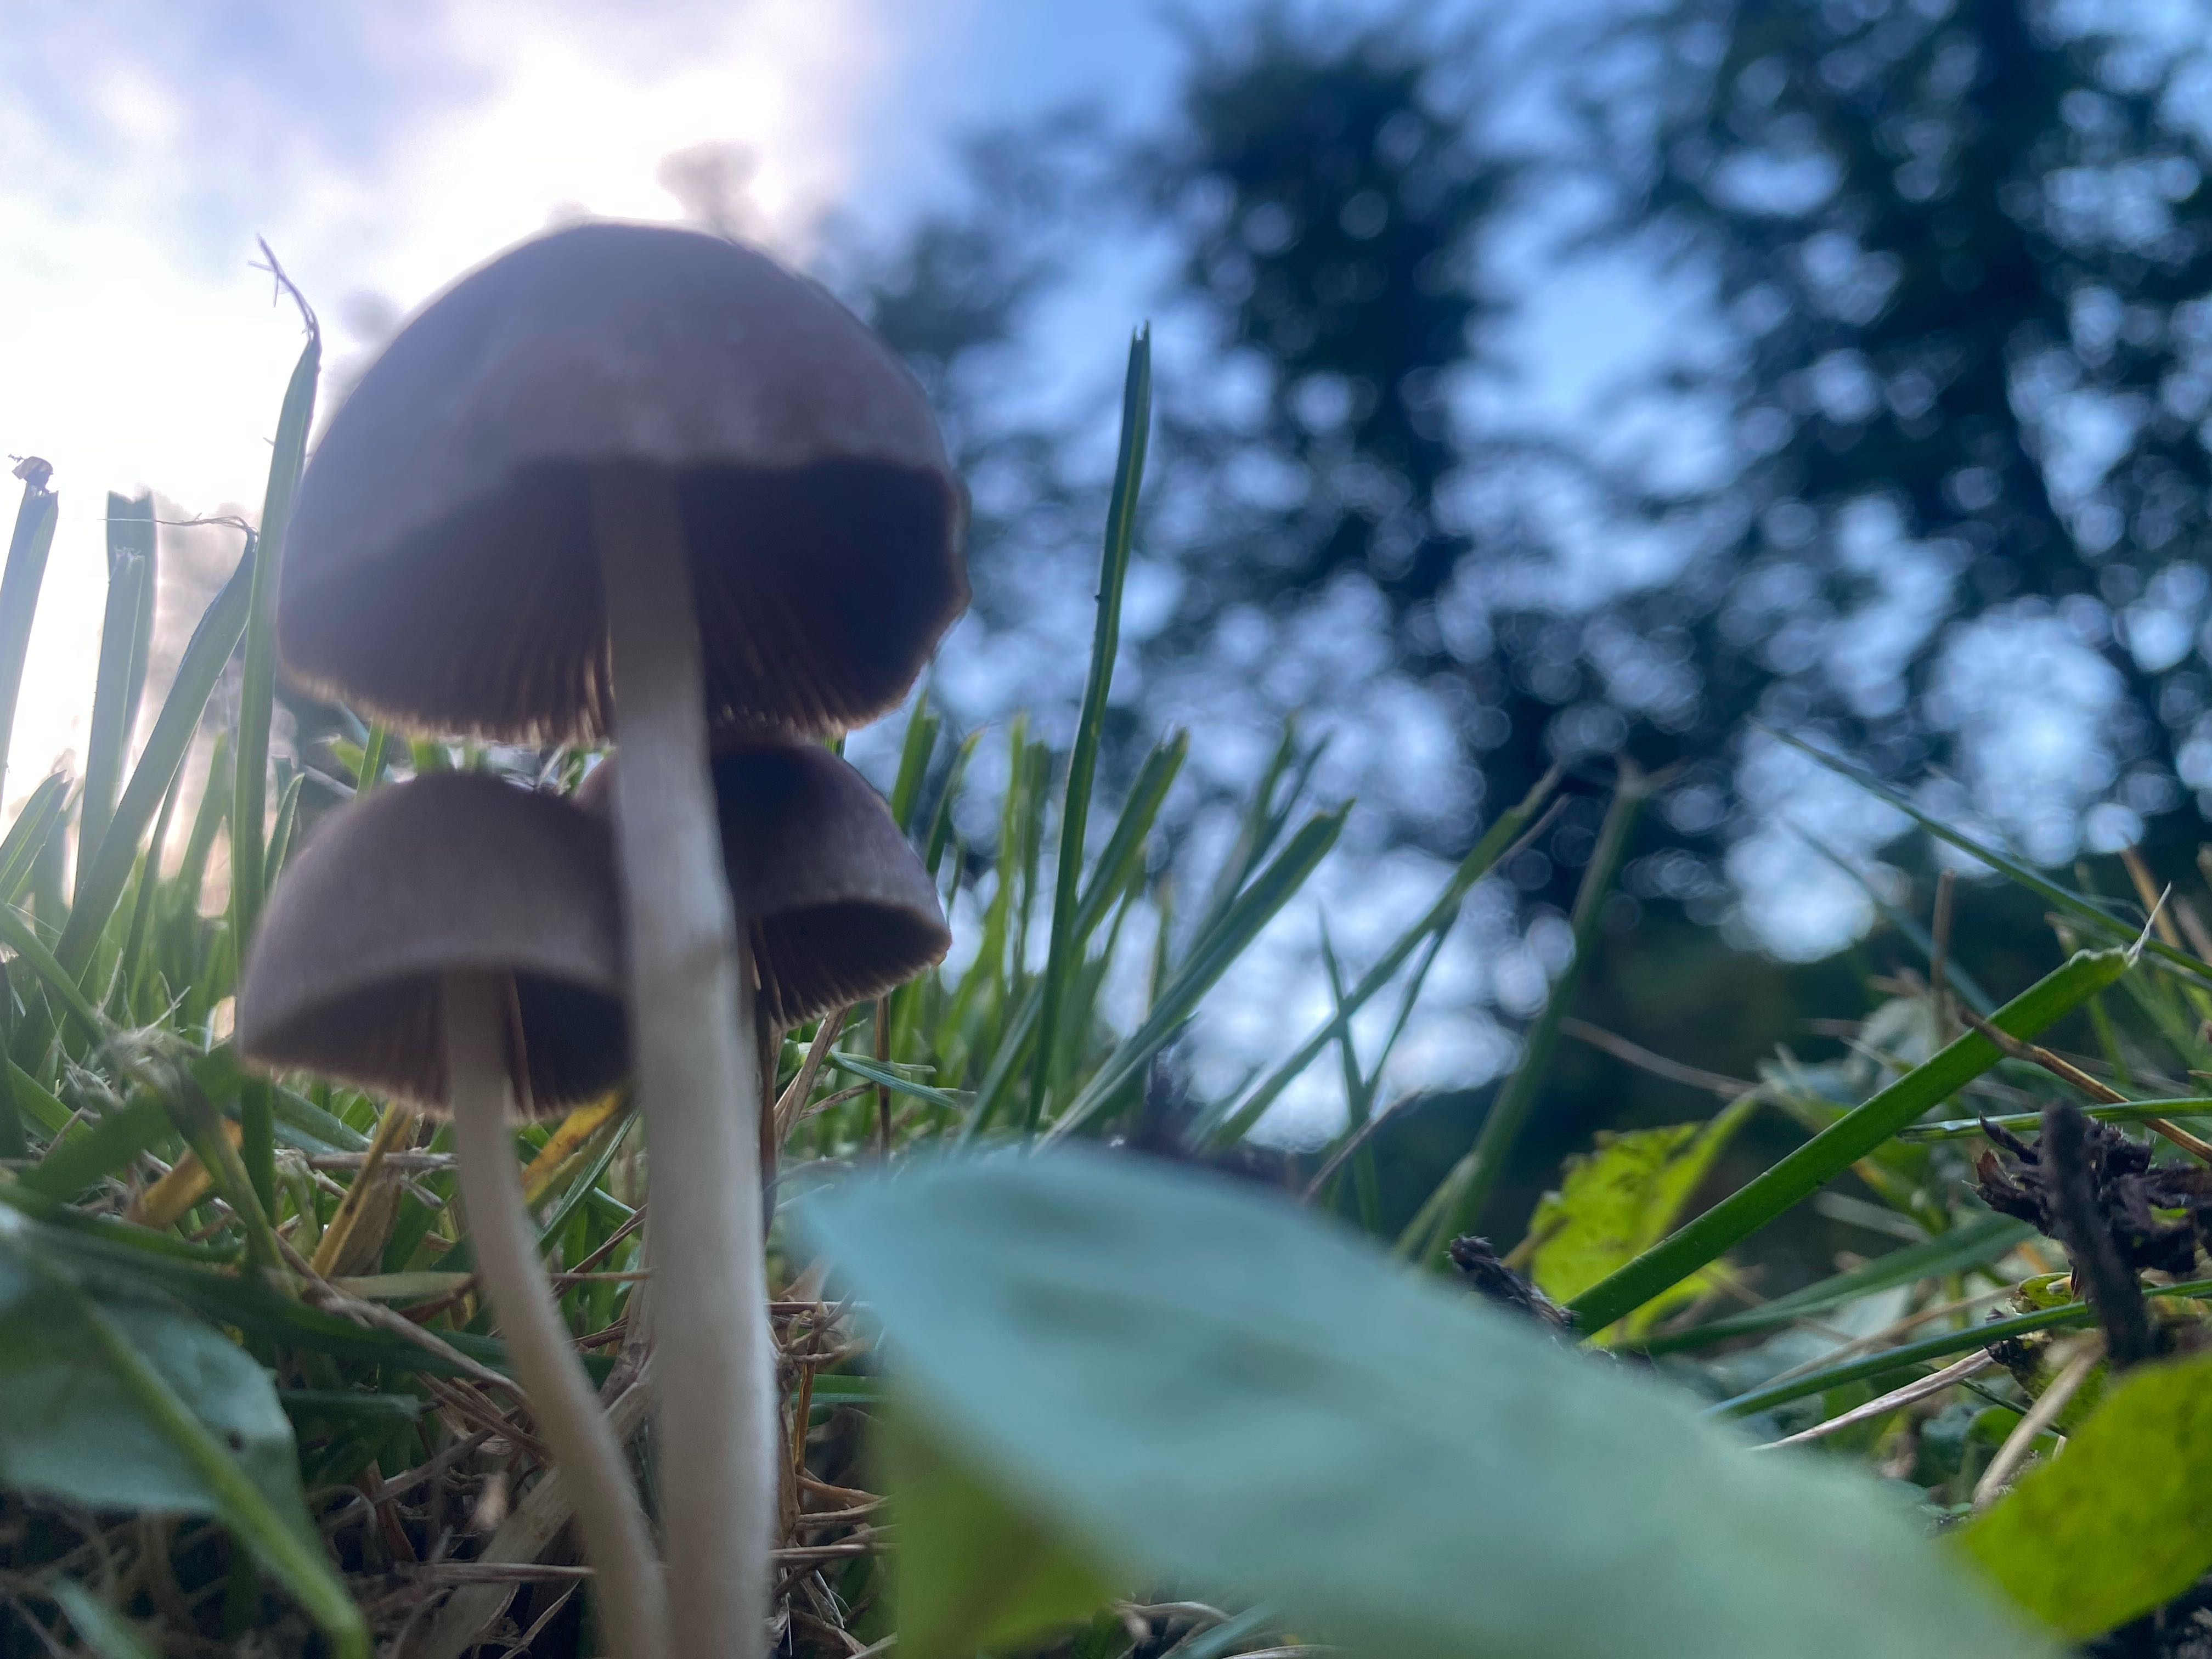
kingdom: Fungi
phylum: Basidiomycota
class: Agaricomycetes
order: Agaricales
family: Psathyrellaceae
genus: Psathyrella
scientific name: Psathyrella
